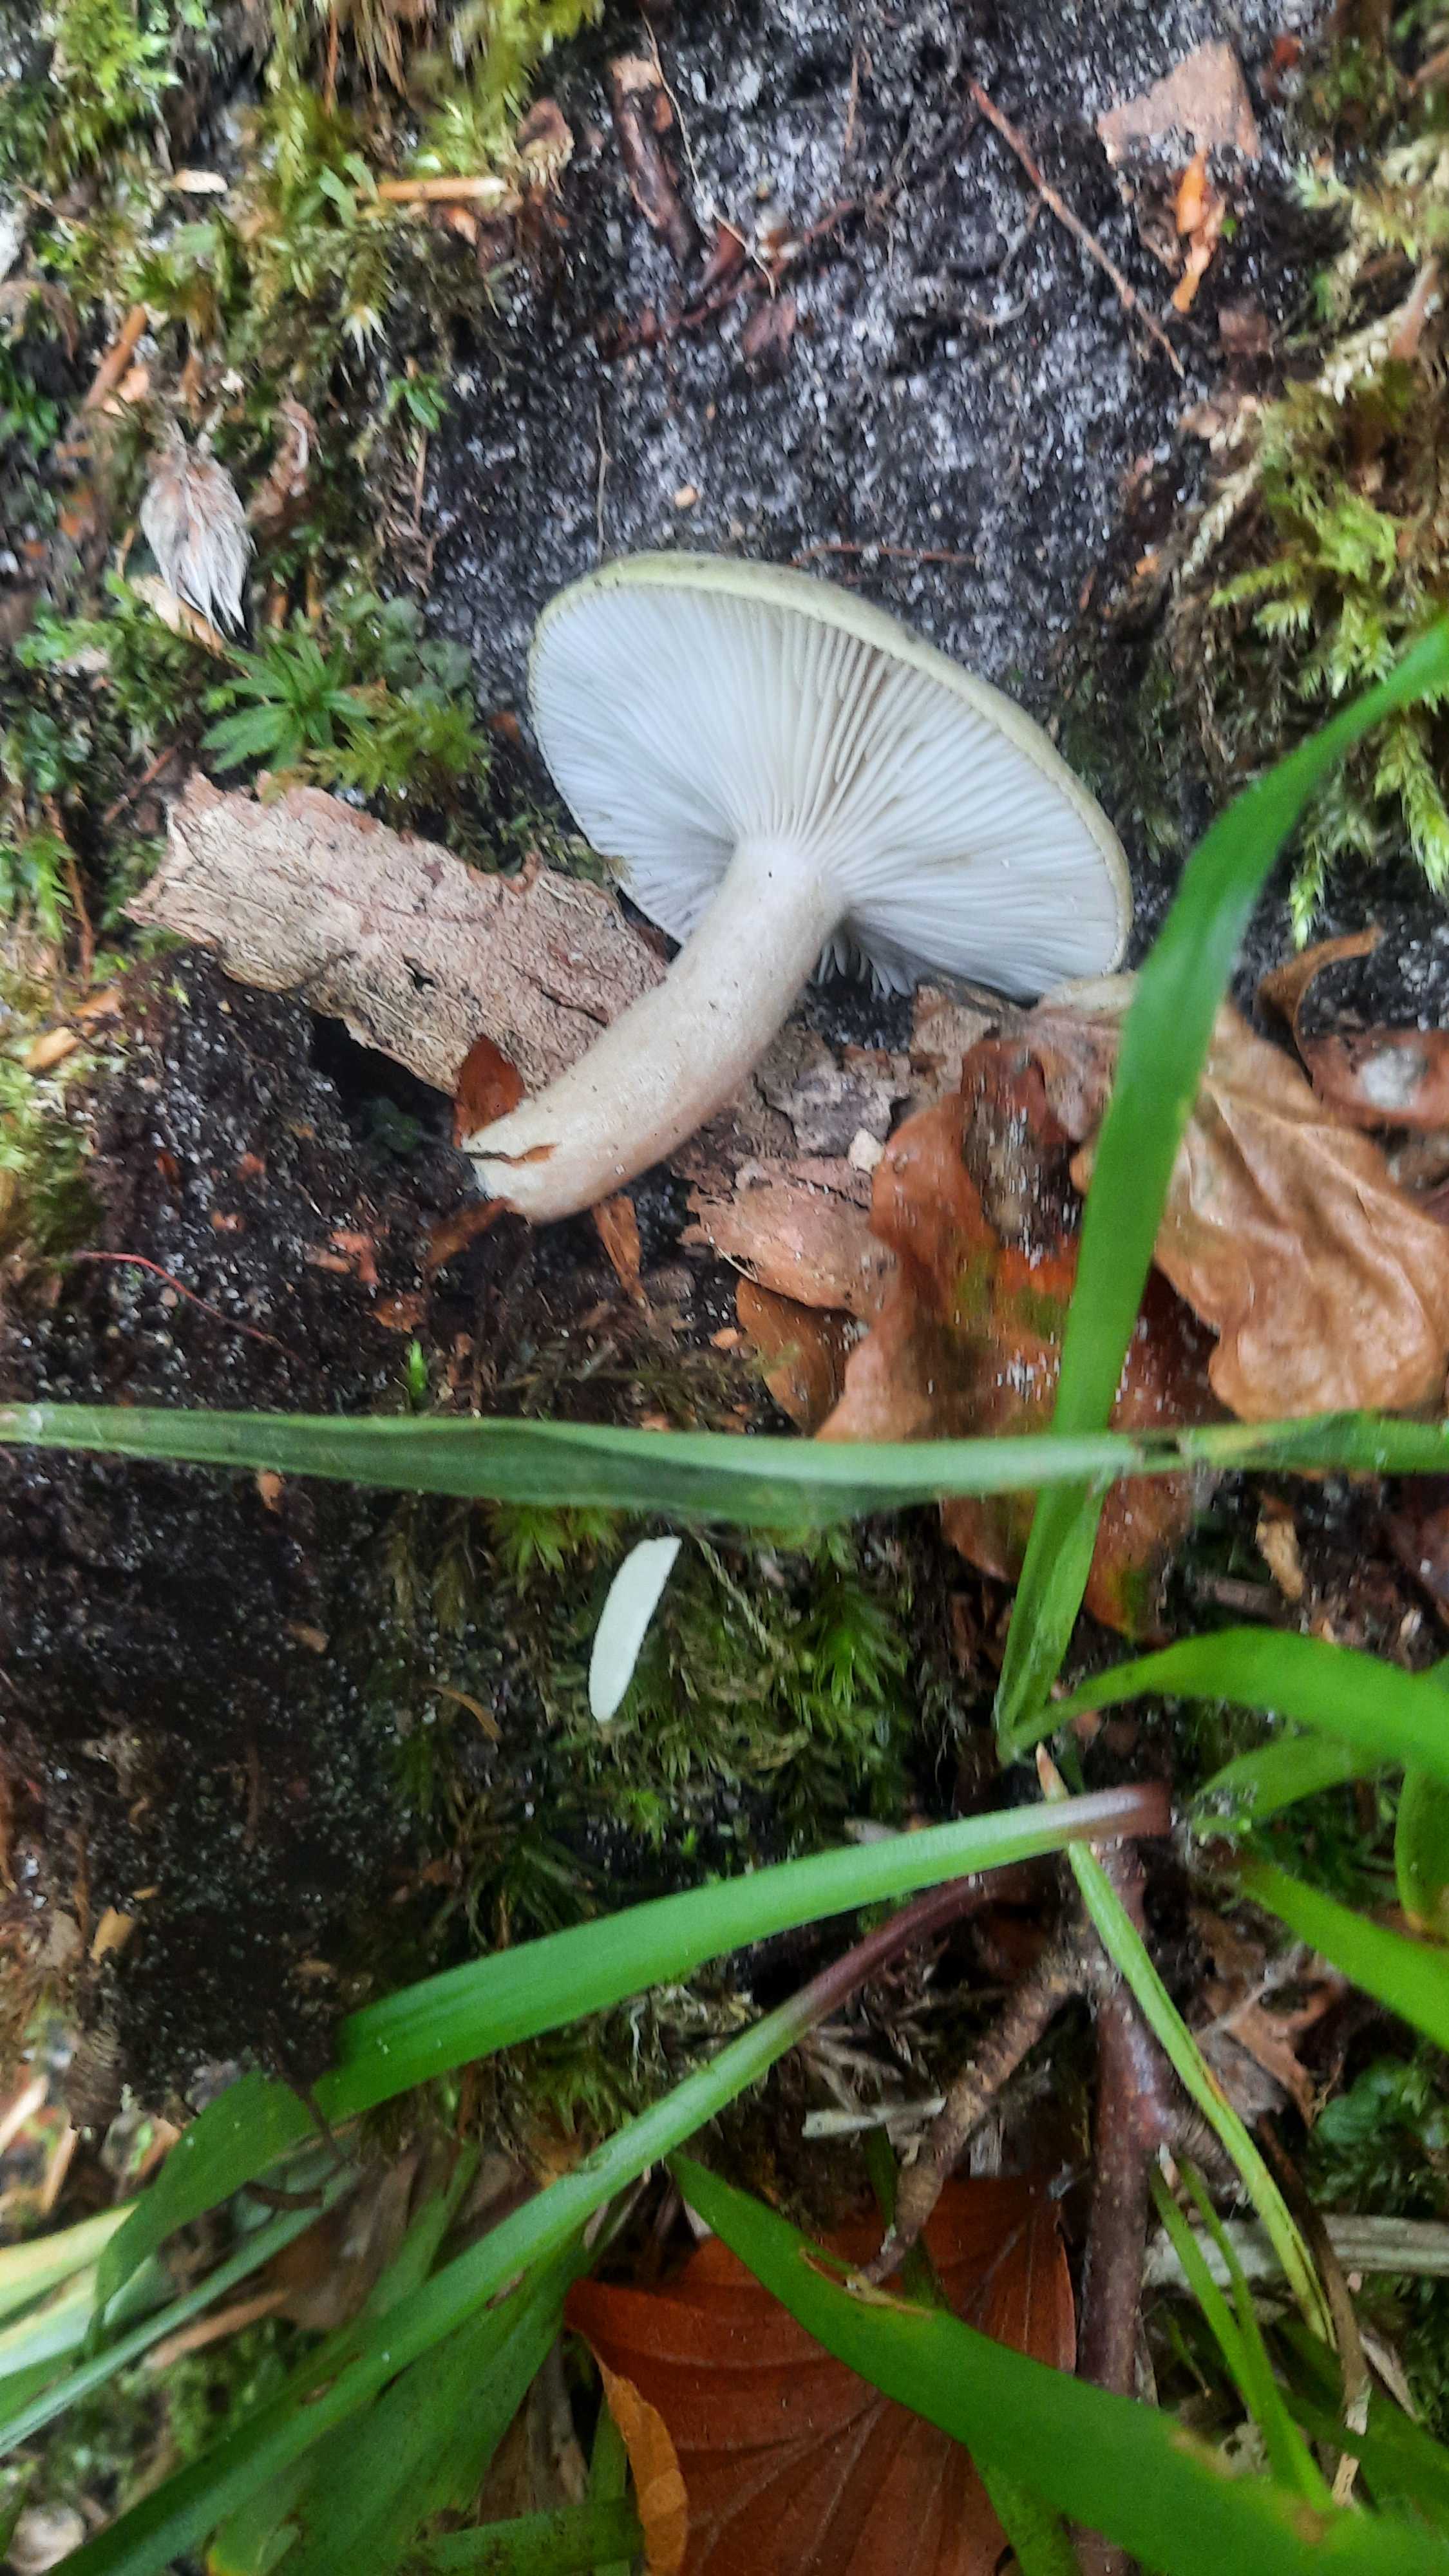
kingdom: Fungi
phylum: Basidiomycota
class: Agaricomycetes
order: Russulales
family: Russulaceae
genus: Lactarius
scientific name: Lactarius blennius
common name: dråbeplettet mælkehat
